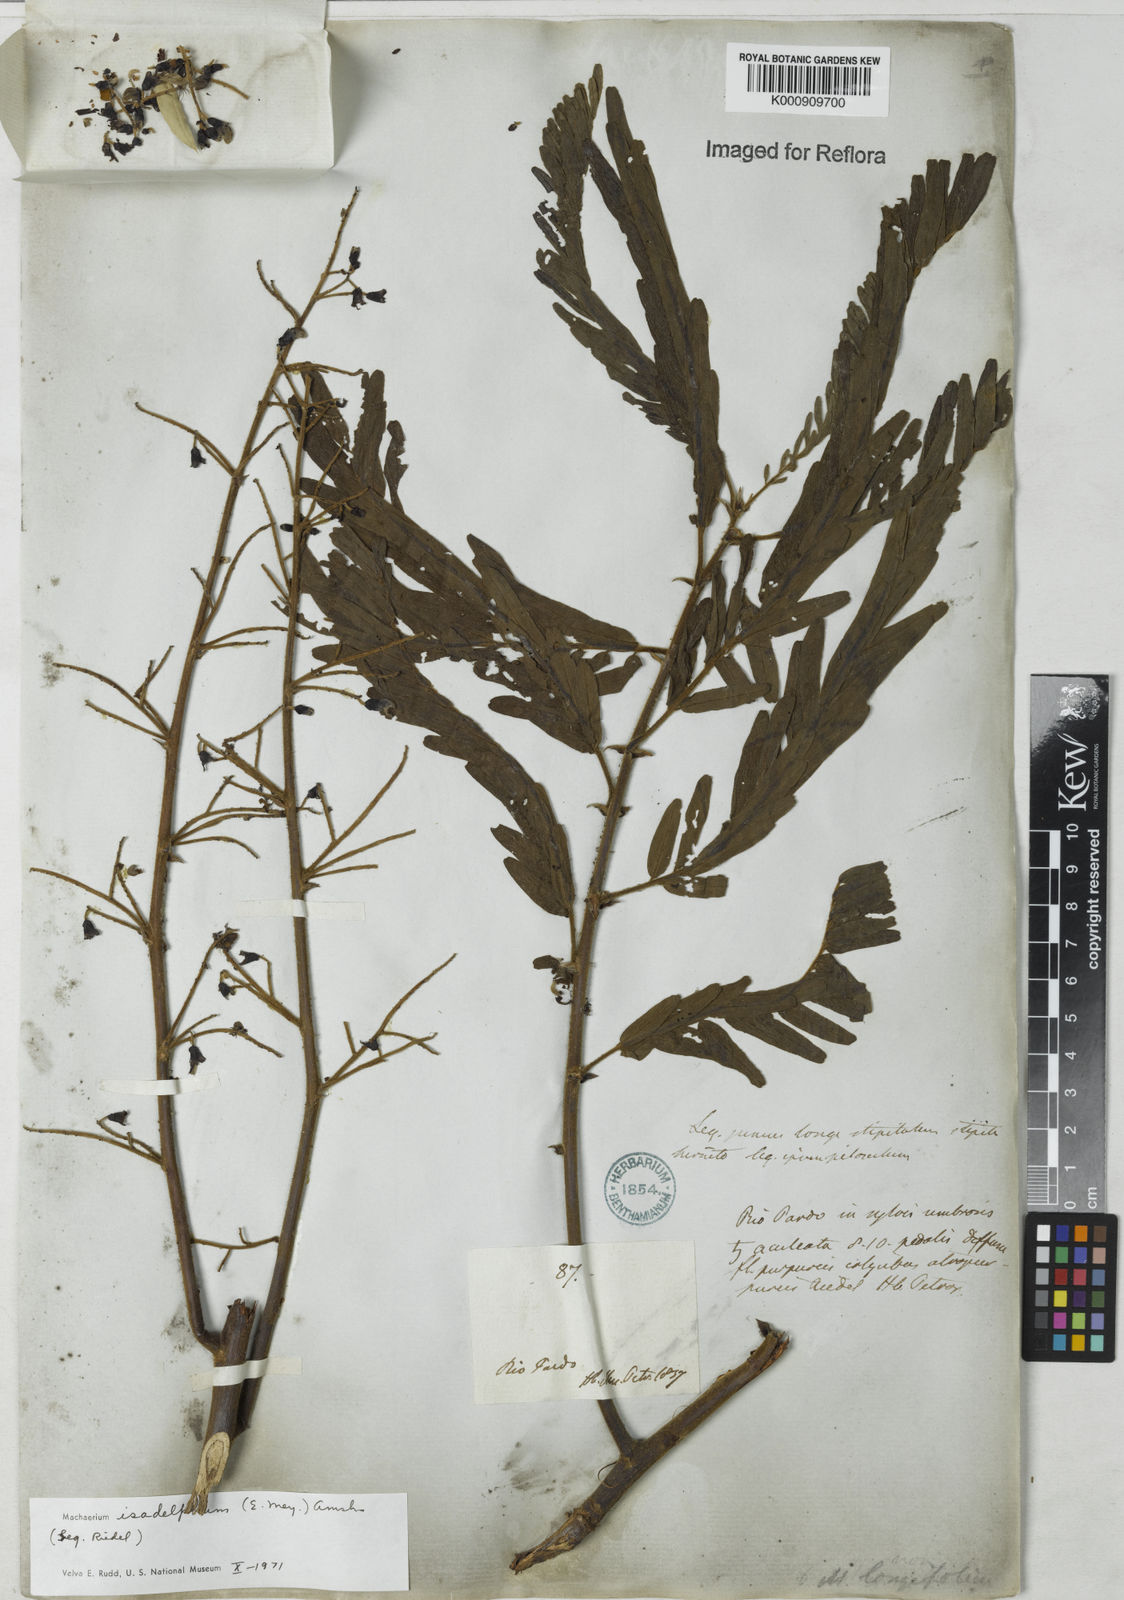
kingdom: Plantae
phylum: Tracheophyta
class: Magnoliopsida
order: Fabales
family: Fabaceae
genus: Machaerium
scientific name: Machaerium isadelphum
